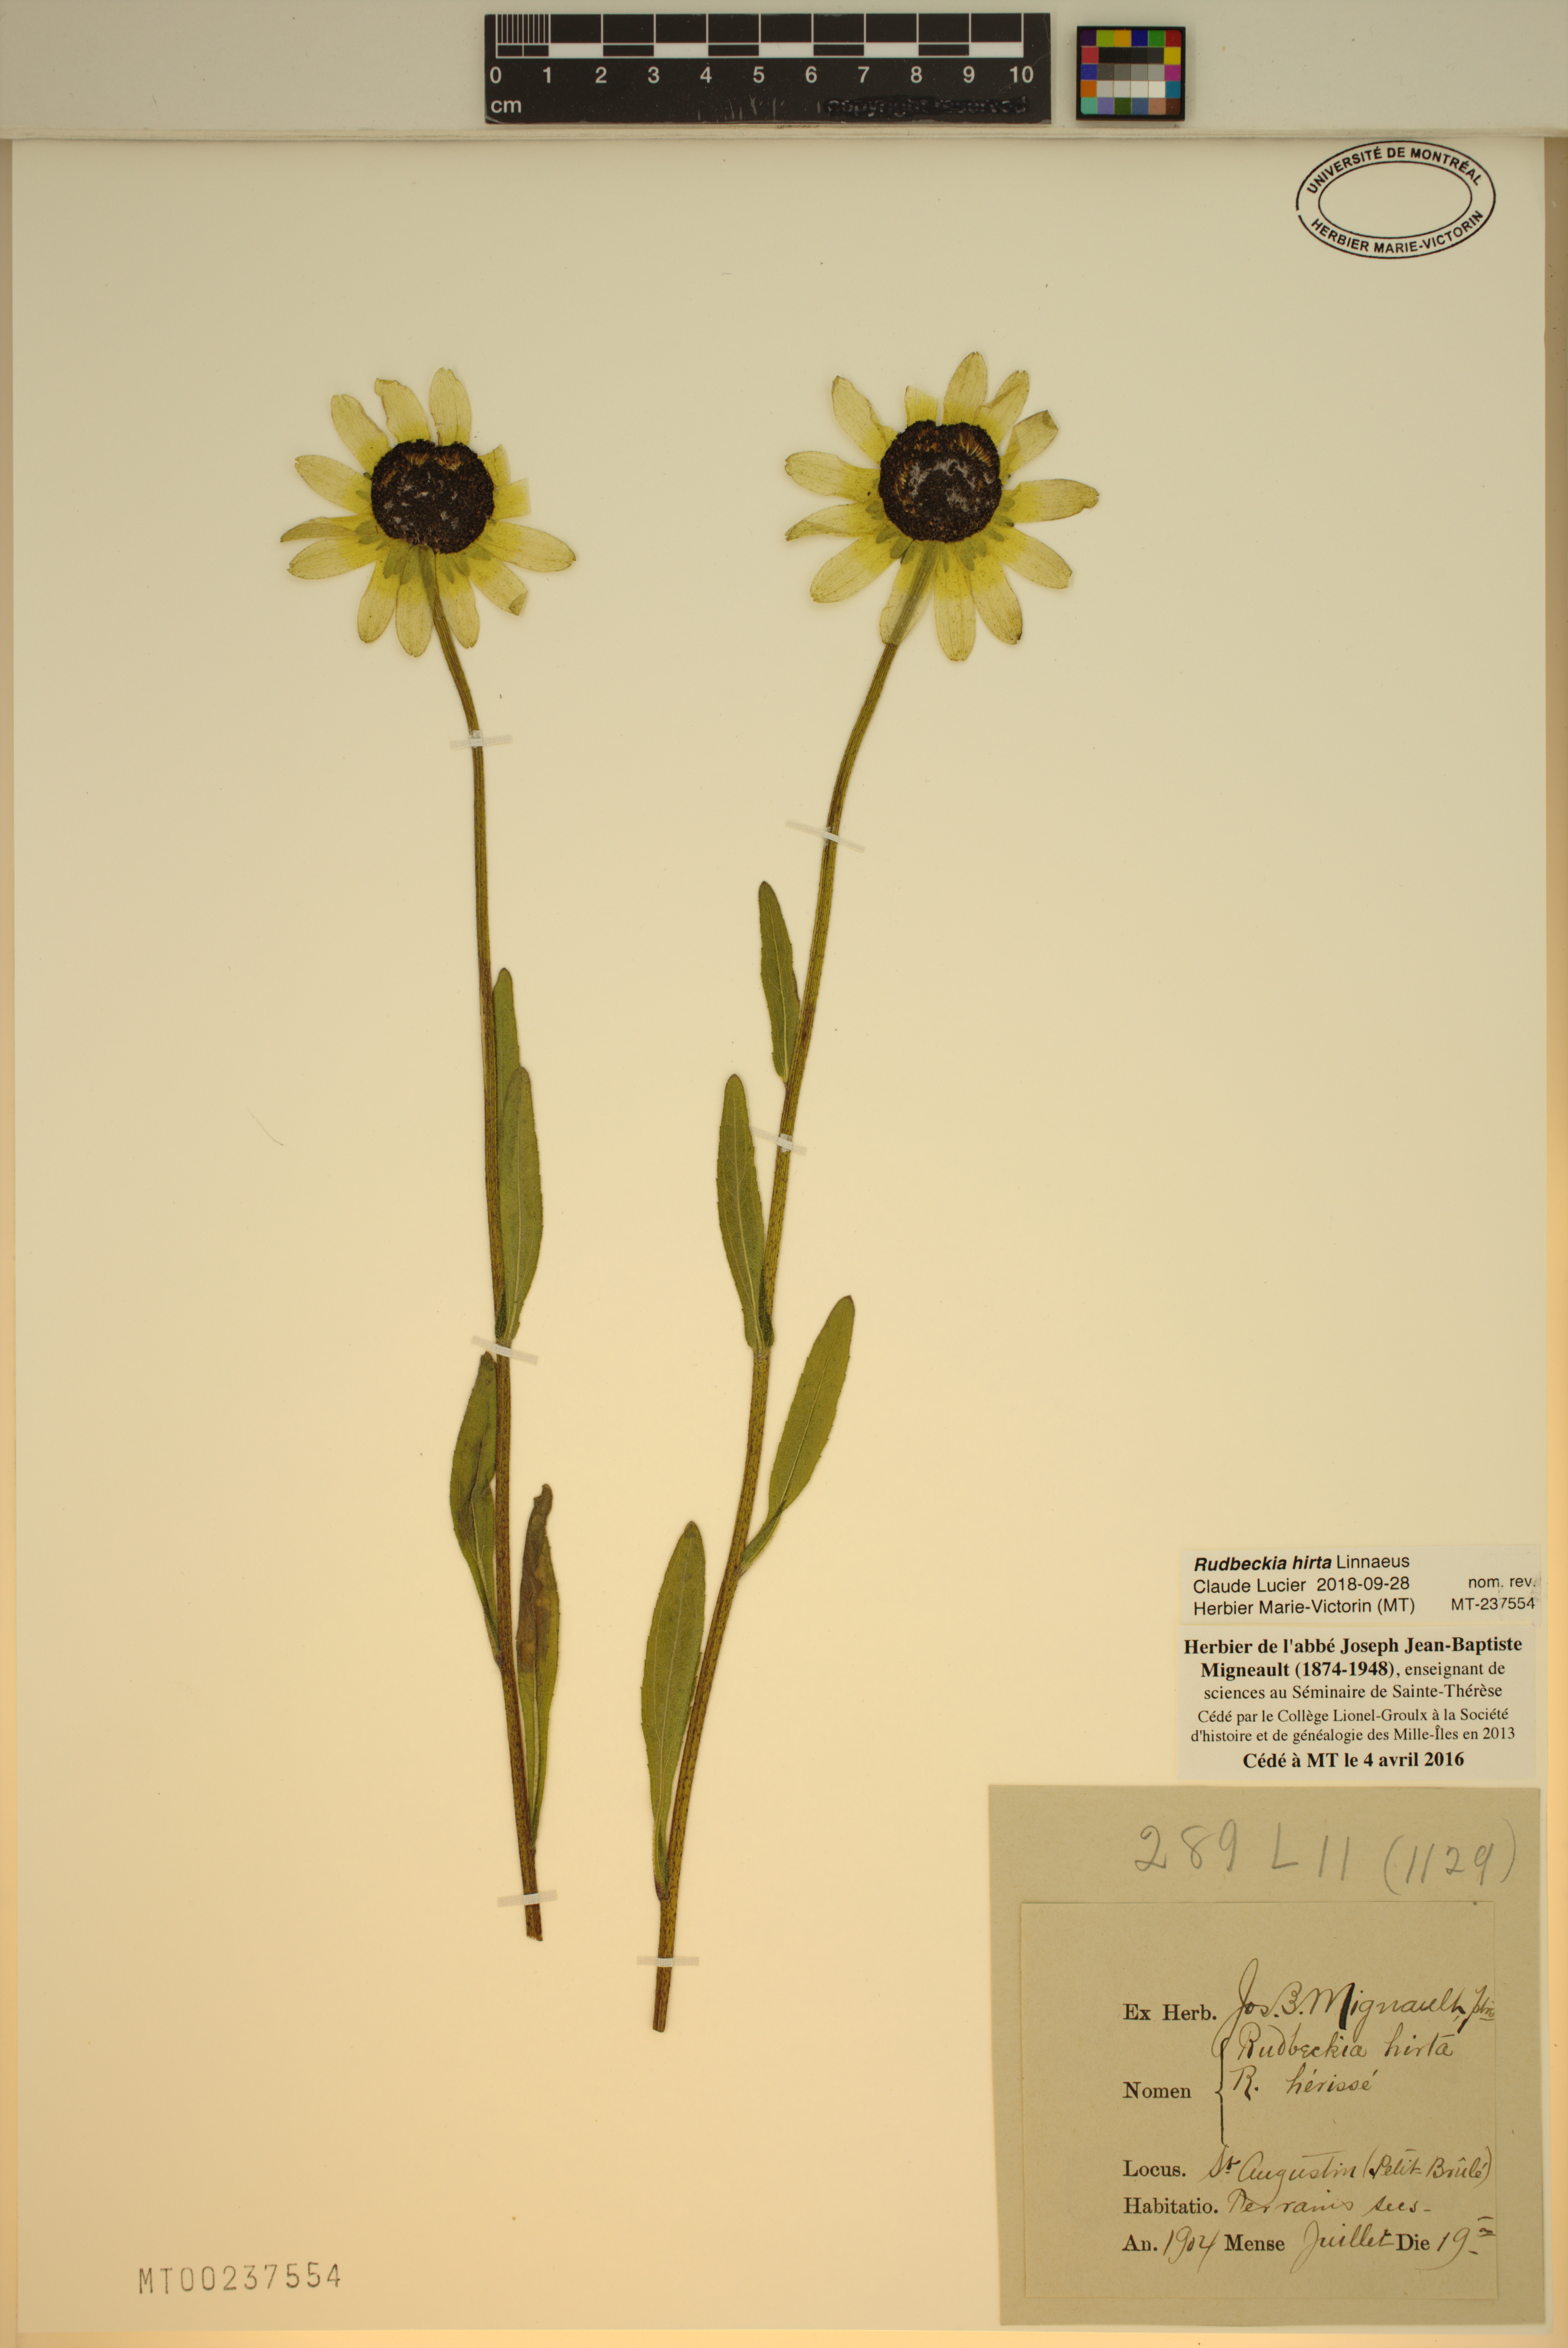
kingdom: Plantae
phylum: Tracheophyta
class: Magnoliopsida
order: Asterales
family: Asteraceae
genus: Rudbeckia
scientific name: Rudbeckia hirta
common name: Black-eyed-susan
